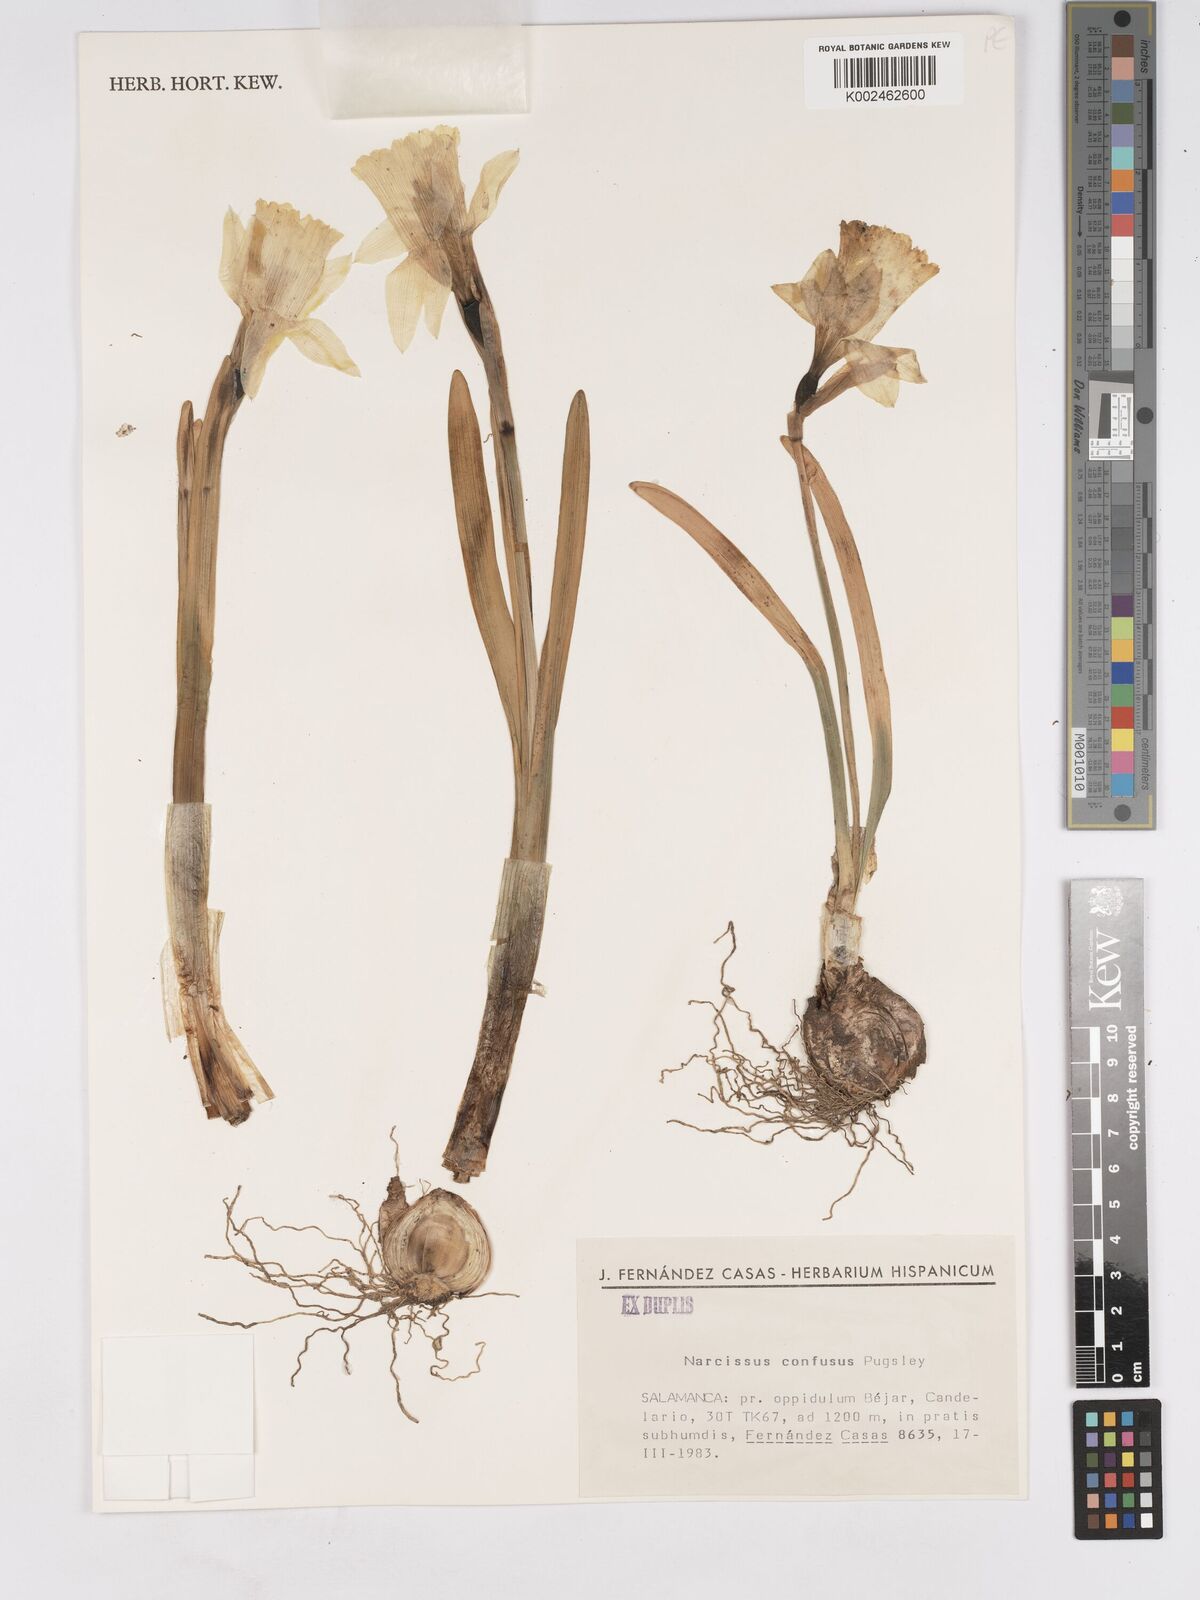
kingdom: Plantae
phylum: Tracheophyta
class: Liliopsida
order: Asparagales
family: Amaryllidaceae
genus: Narcissus
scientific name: Narcissus confusus
